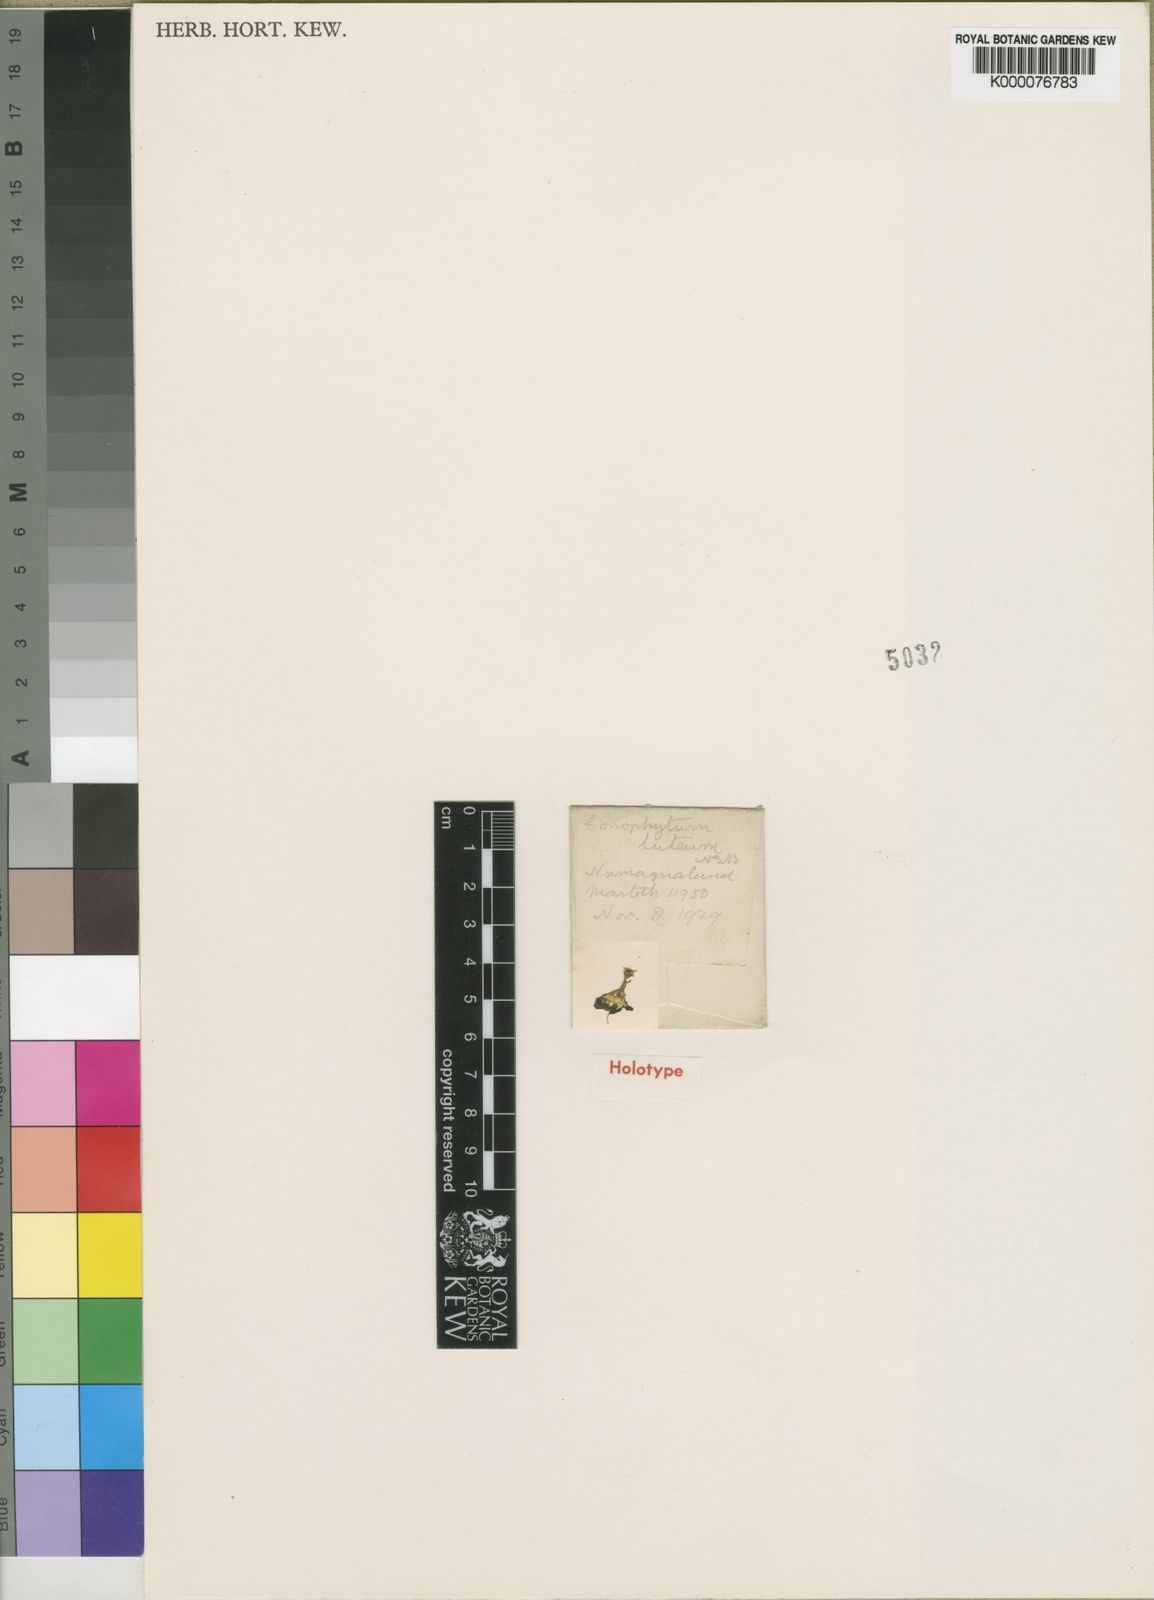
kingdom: Plantae
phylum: Tracheophyta
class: Magnoliopsida
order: Caryophyllales
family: Aizoaceae
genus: Conophytum
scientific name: Conophytum flavum
